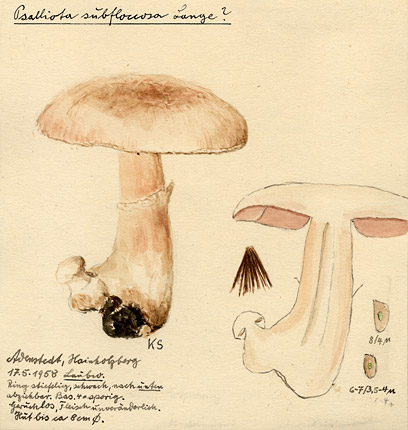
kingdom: Fungi
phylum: Basidiomycota
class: Agaricomycetes
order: Agaricales
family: Agaricaceae
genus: Agaricus
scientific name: Agaricus subfloccosus
